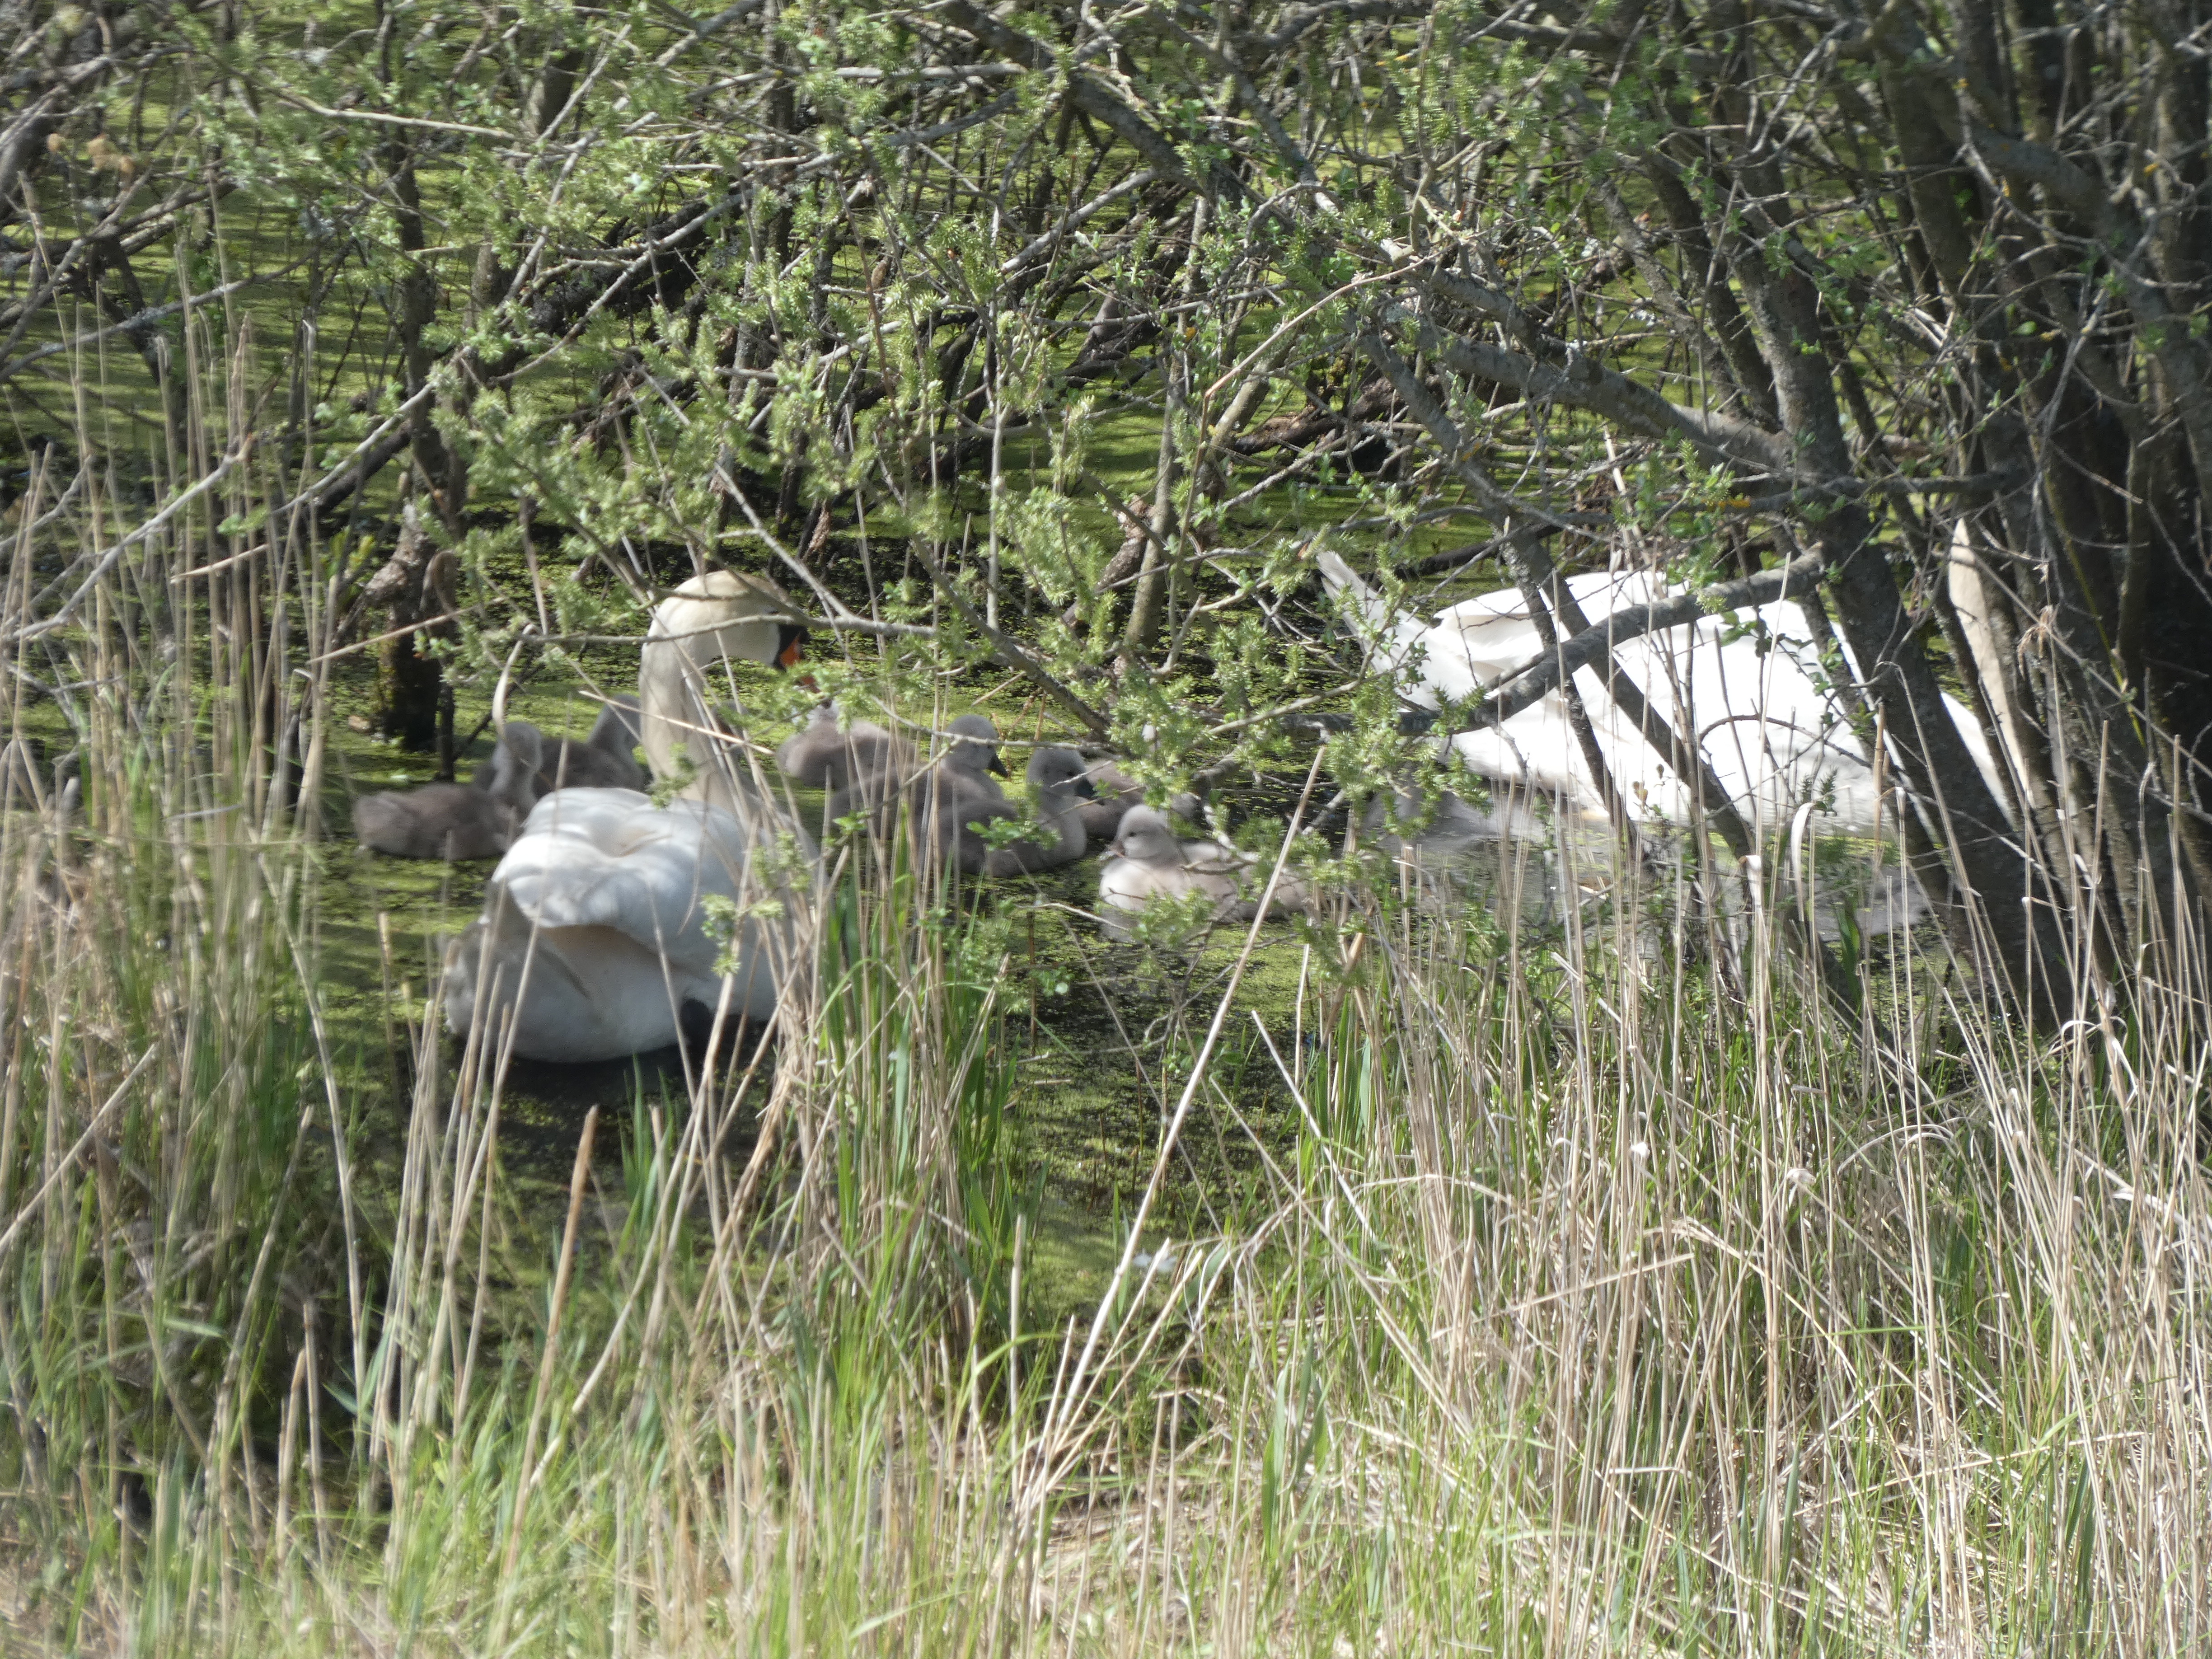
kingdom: Animalia
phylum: Chordata
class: Aves
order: Anseriformes
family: Anatidae
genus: Cygnus
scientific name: Cygnus olor
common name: Knopsvane
